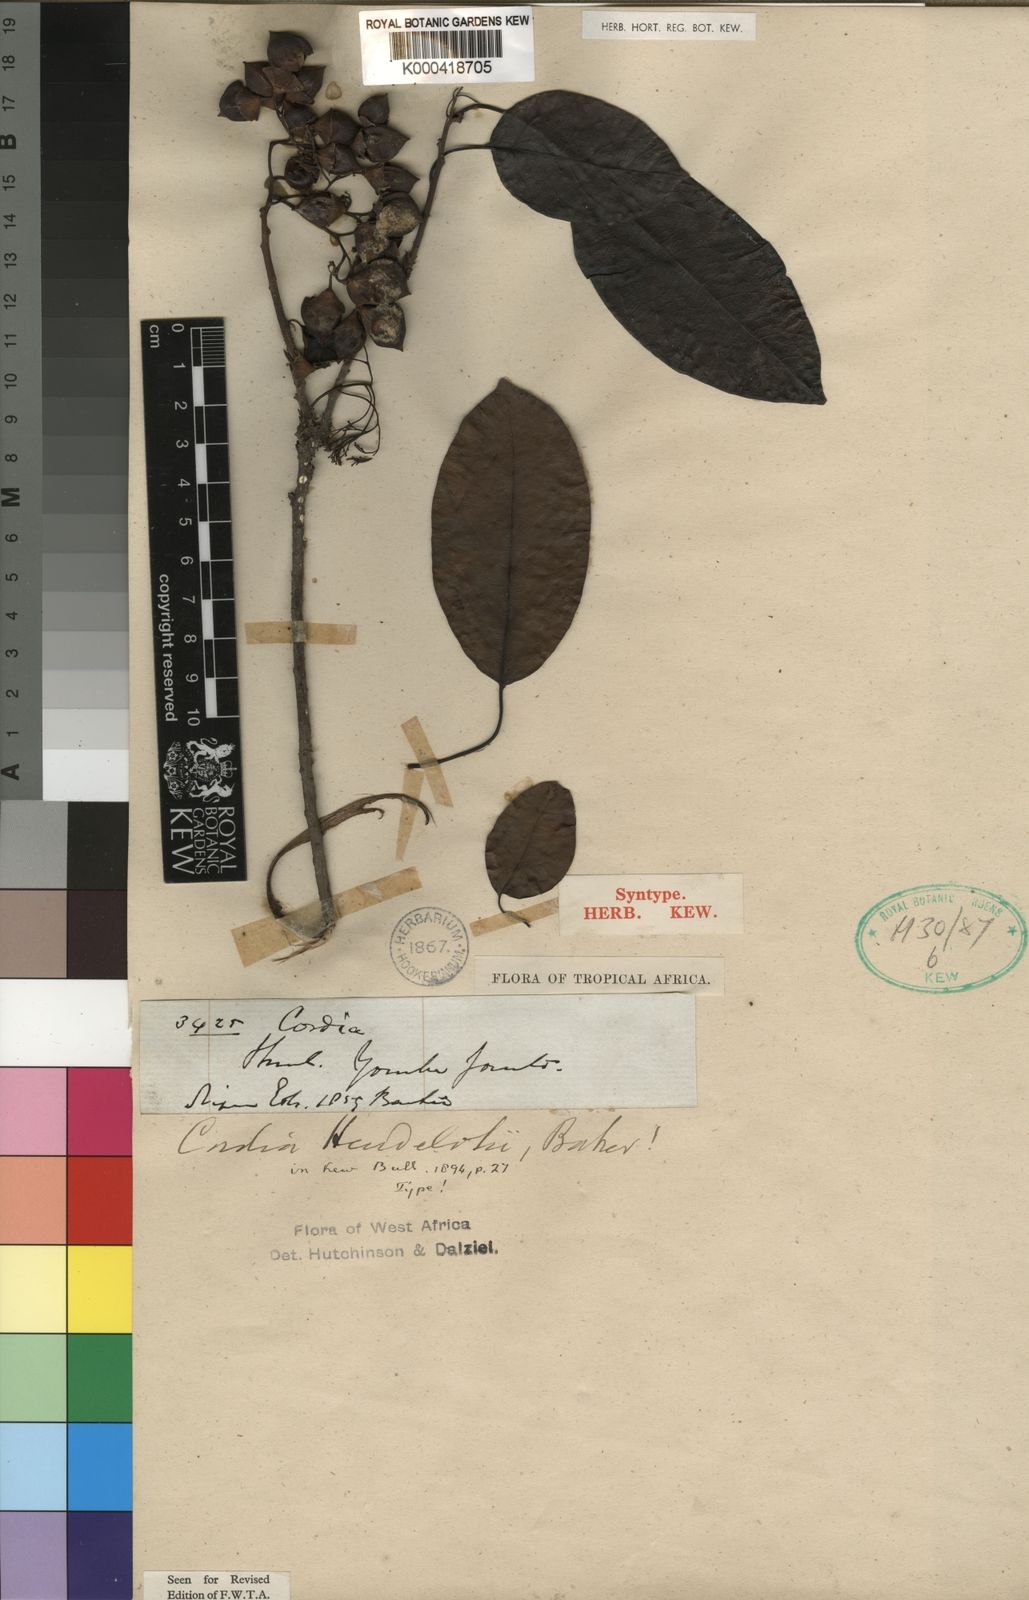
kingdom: Plantae
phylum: Tracheophyta
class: Magnoliopsida
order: Boraginales
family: Cordiaceae
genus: Cordia
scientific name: Cordia
